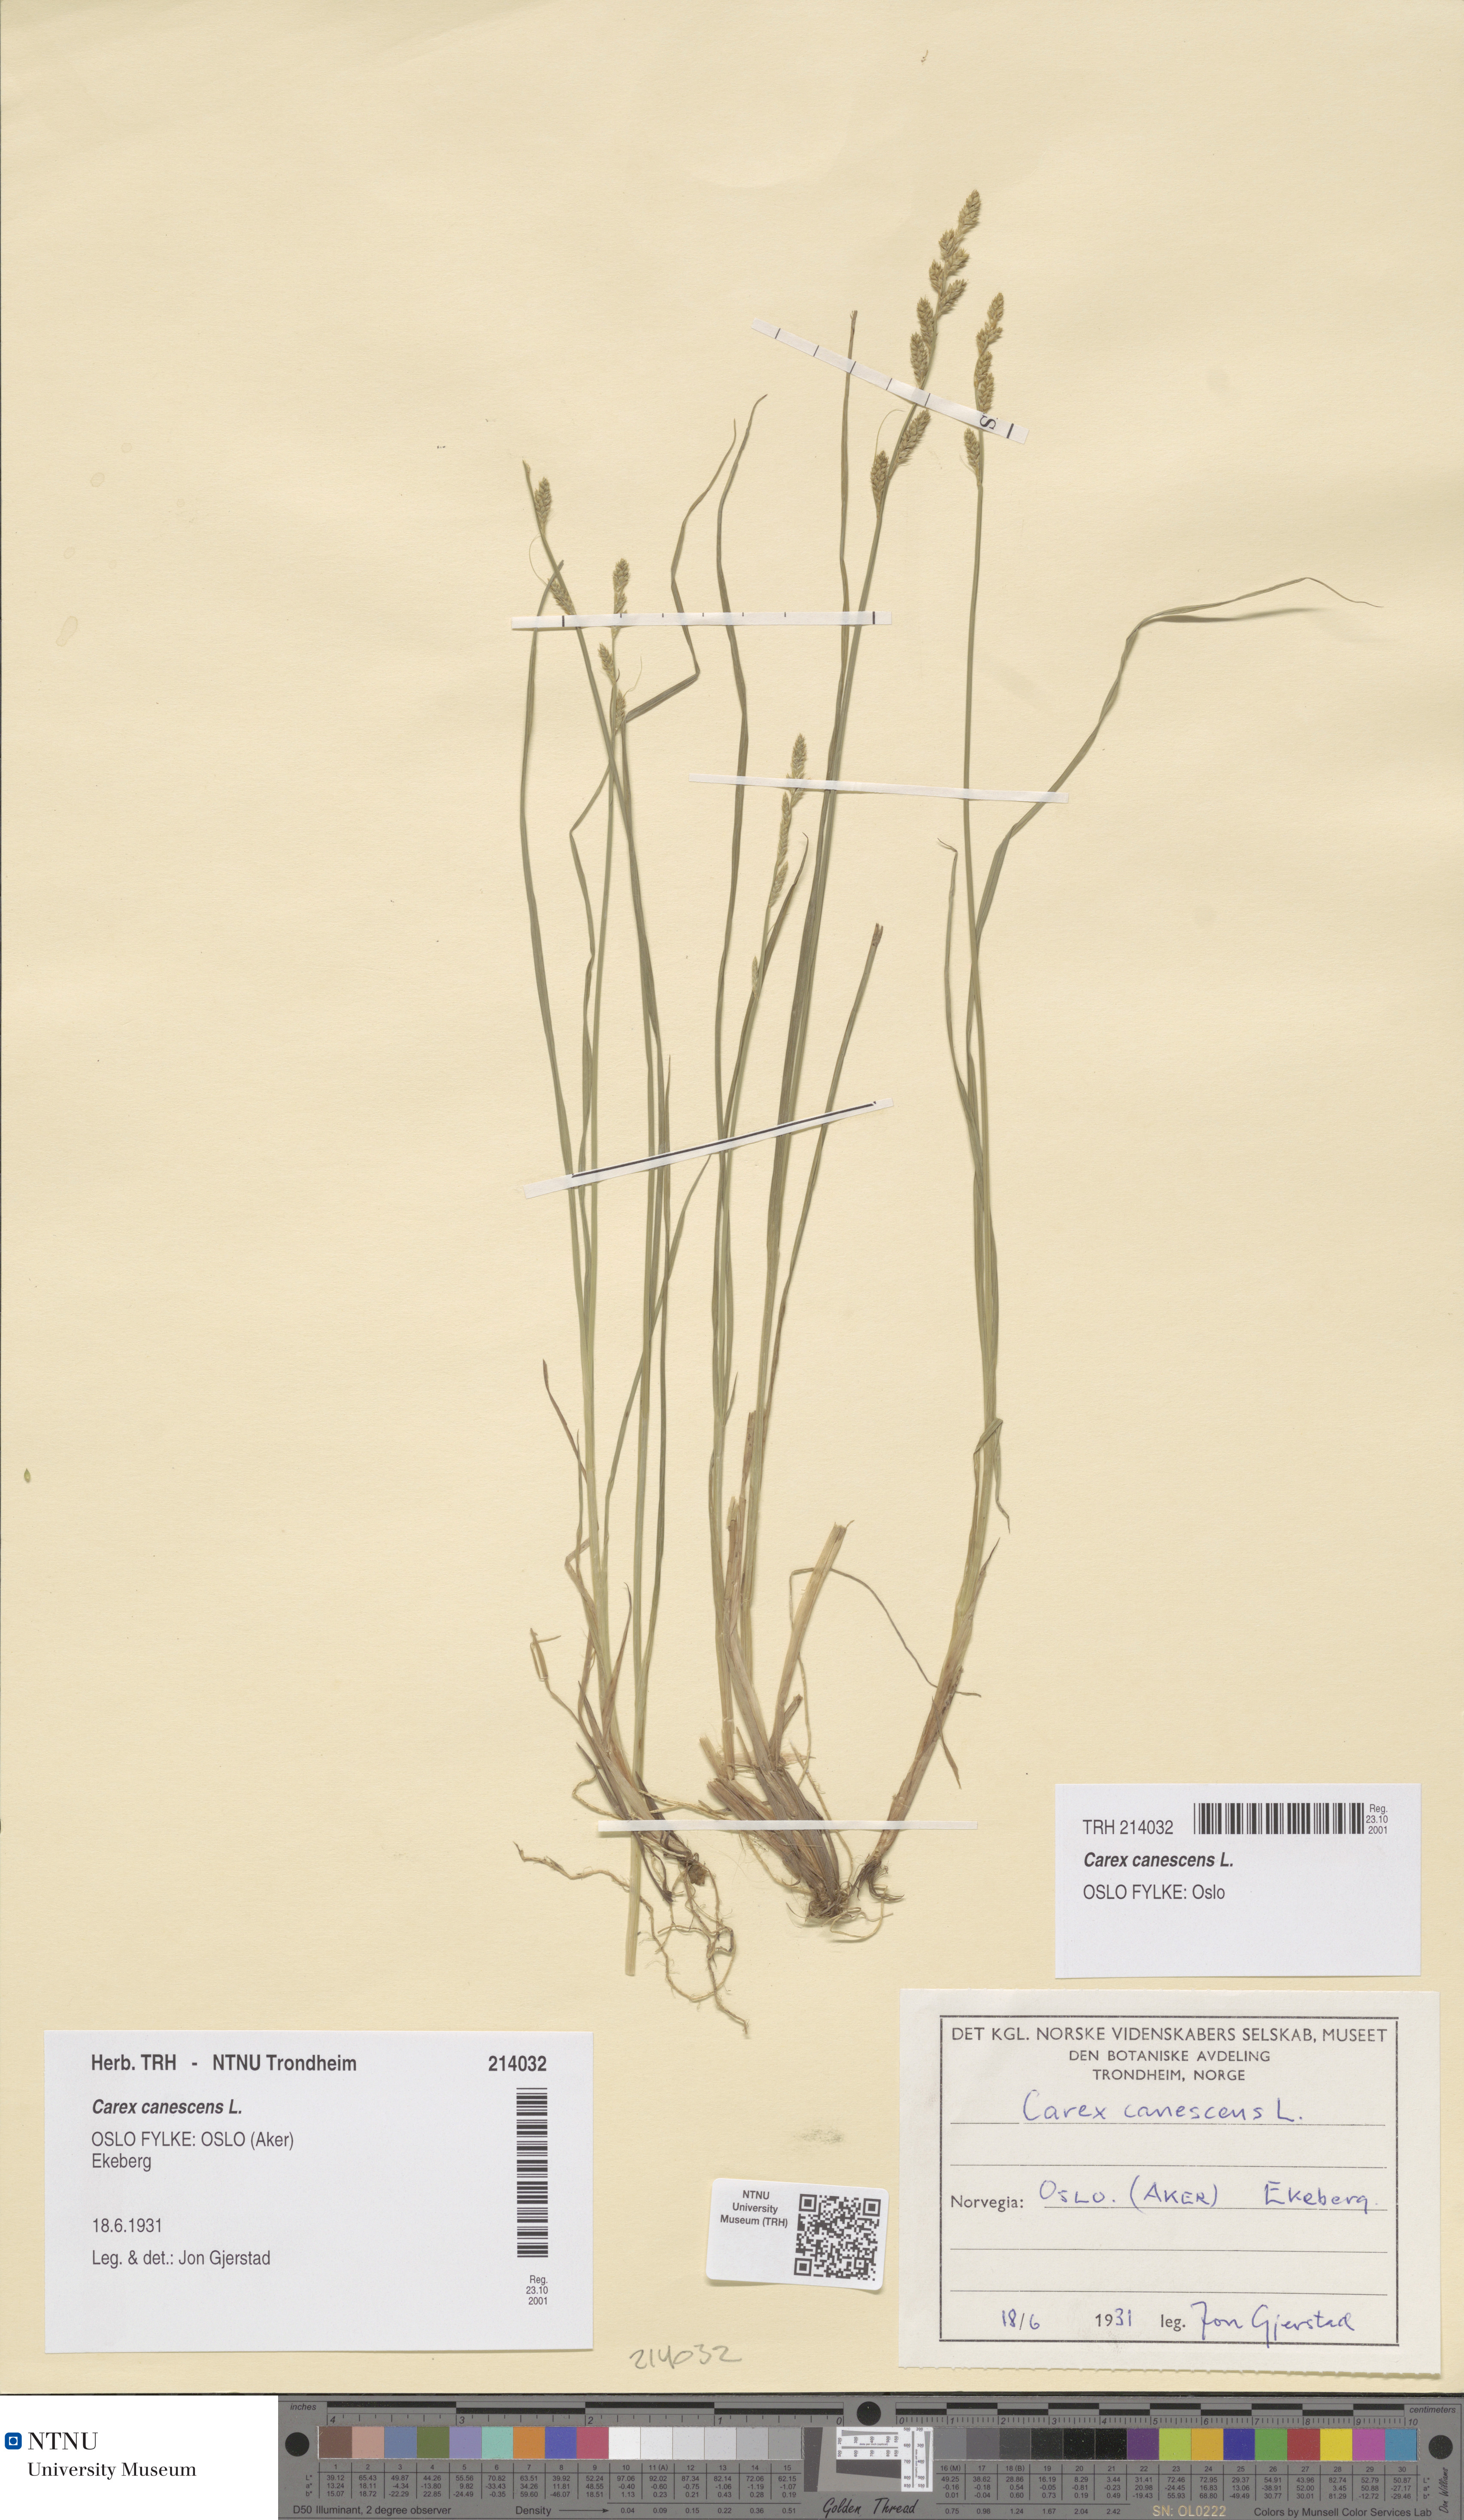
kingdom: Plantae
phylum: Tracheophyta
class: Liliopsida
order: Poales
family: Cyperaceae
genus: Carex
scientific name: Carex canescens
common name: White sedge
